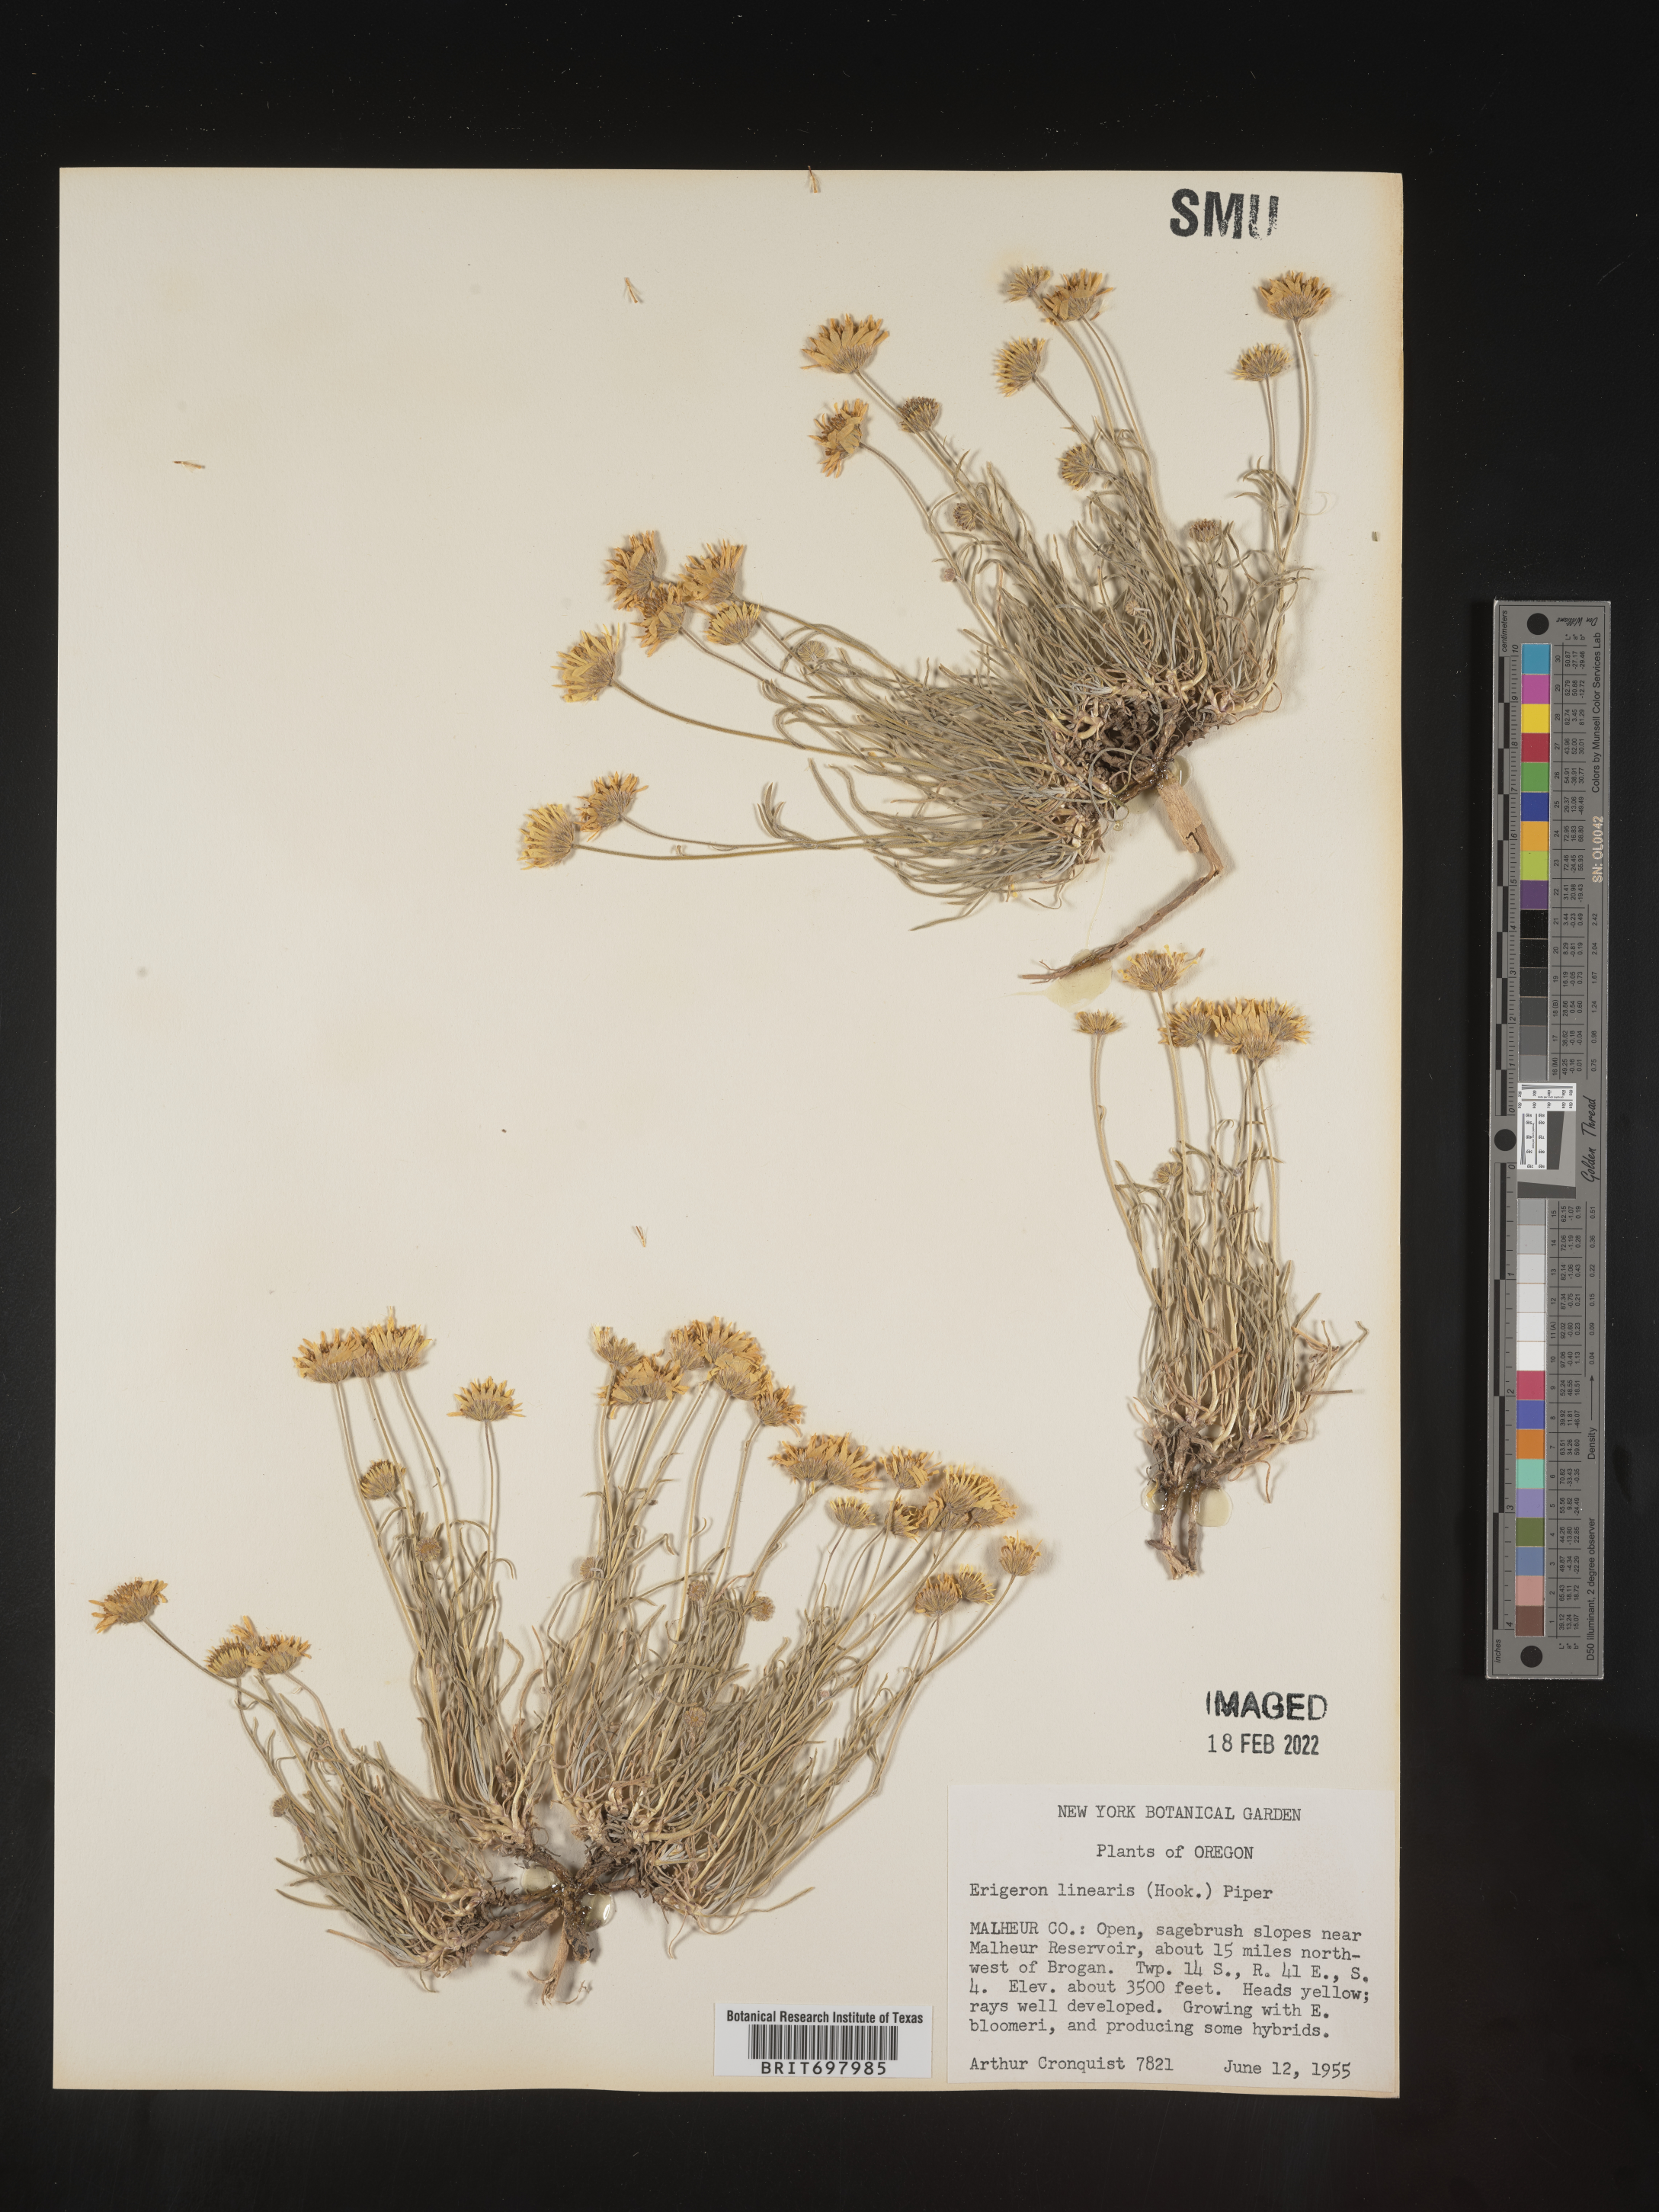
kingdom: Plantae
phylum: Tracheophyta
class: Magnoliopsida
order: Asterales
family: Asteraceae
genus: Erigeron
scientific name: Erigeron linearis
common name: Desert yellow fleabane
